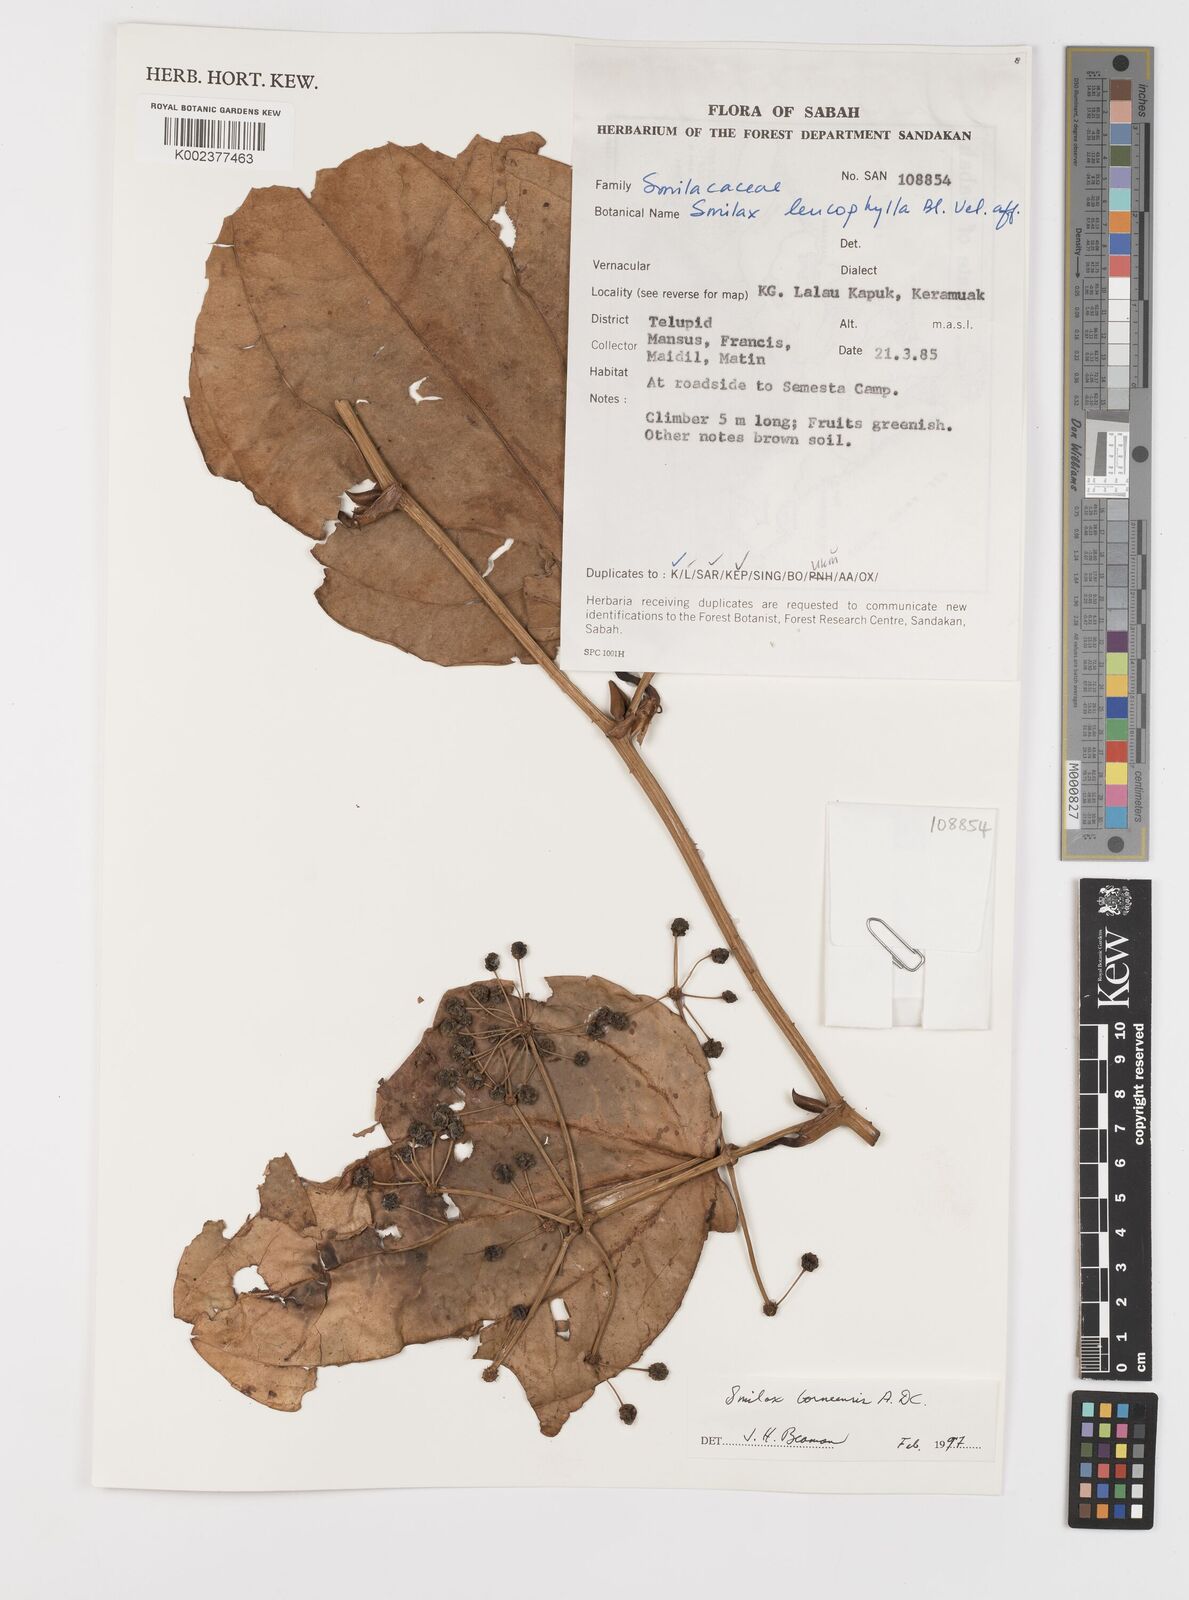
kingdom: Plantae
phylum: Tracheophyta
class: Liliopsida
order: Liliales
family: Smilacaceae
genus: Smilax
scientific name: Smilax borneensis
